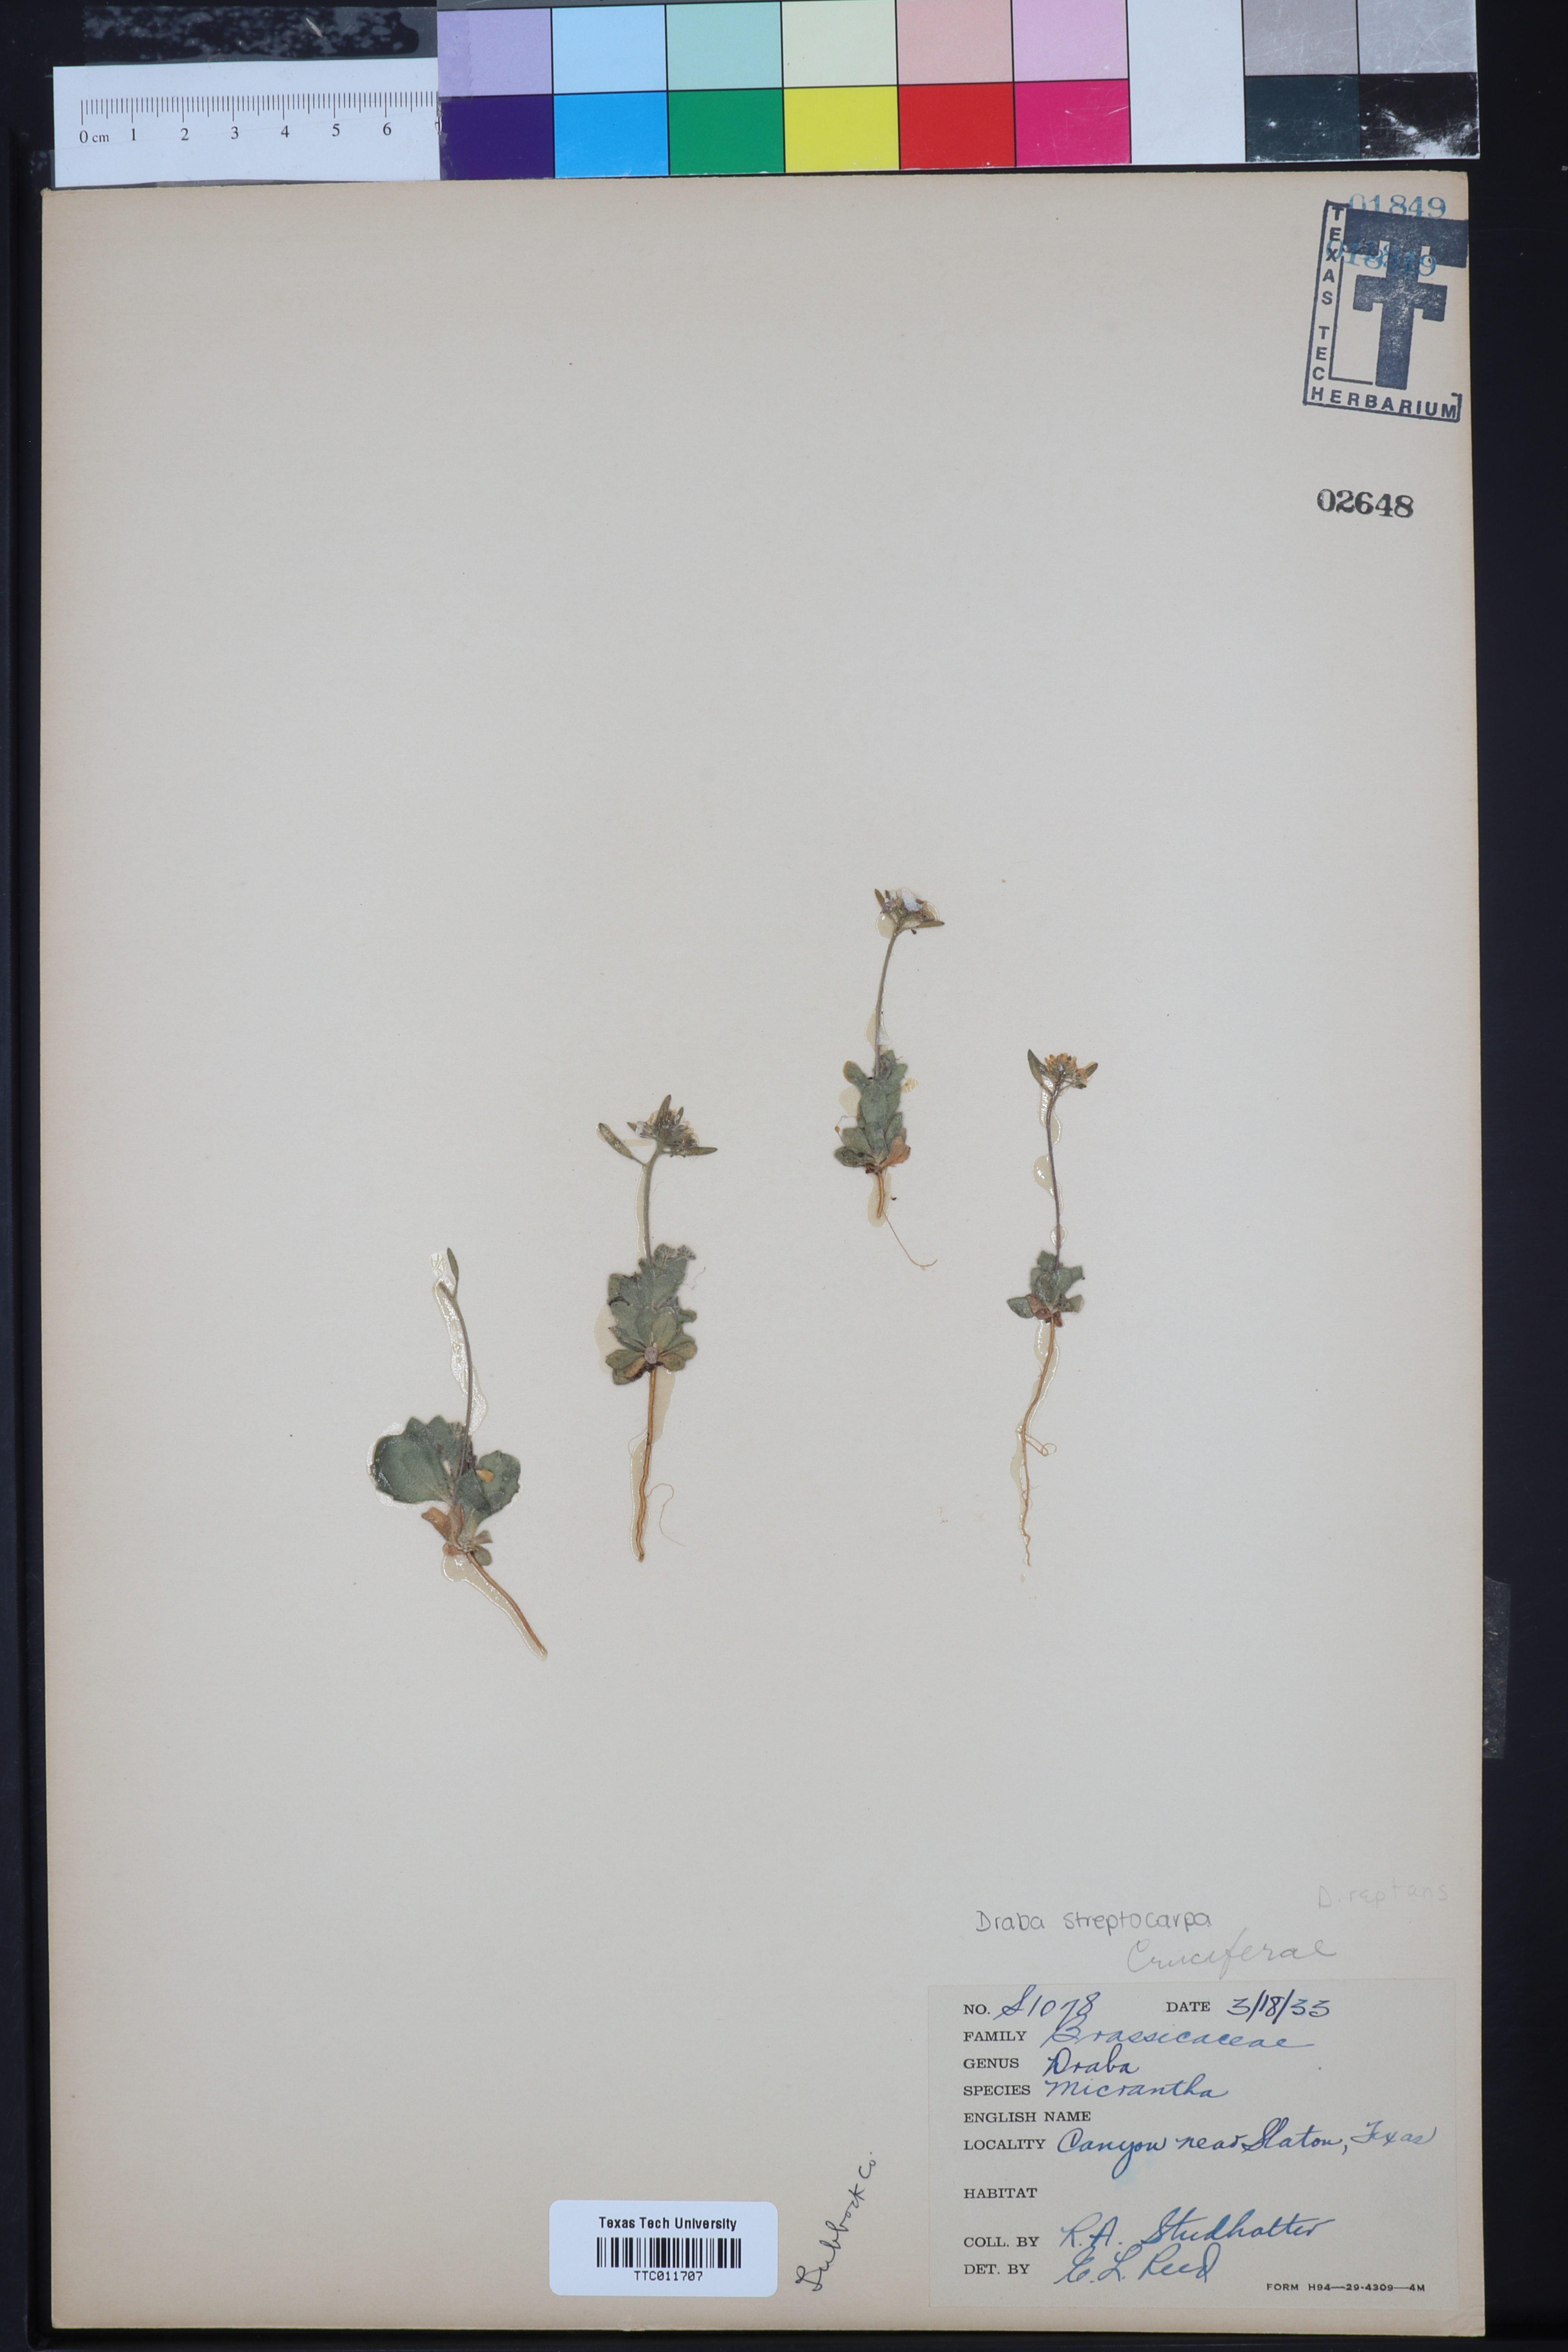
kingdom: Plantae
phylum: Tracheophyta
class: Magnoliopsida
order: Brassicales
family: Brassicaceae
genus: Tomostima
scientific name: Tomostima reptans
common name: Carolina draba
